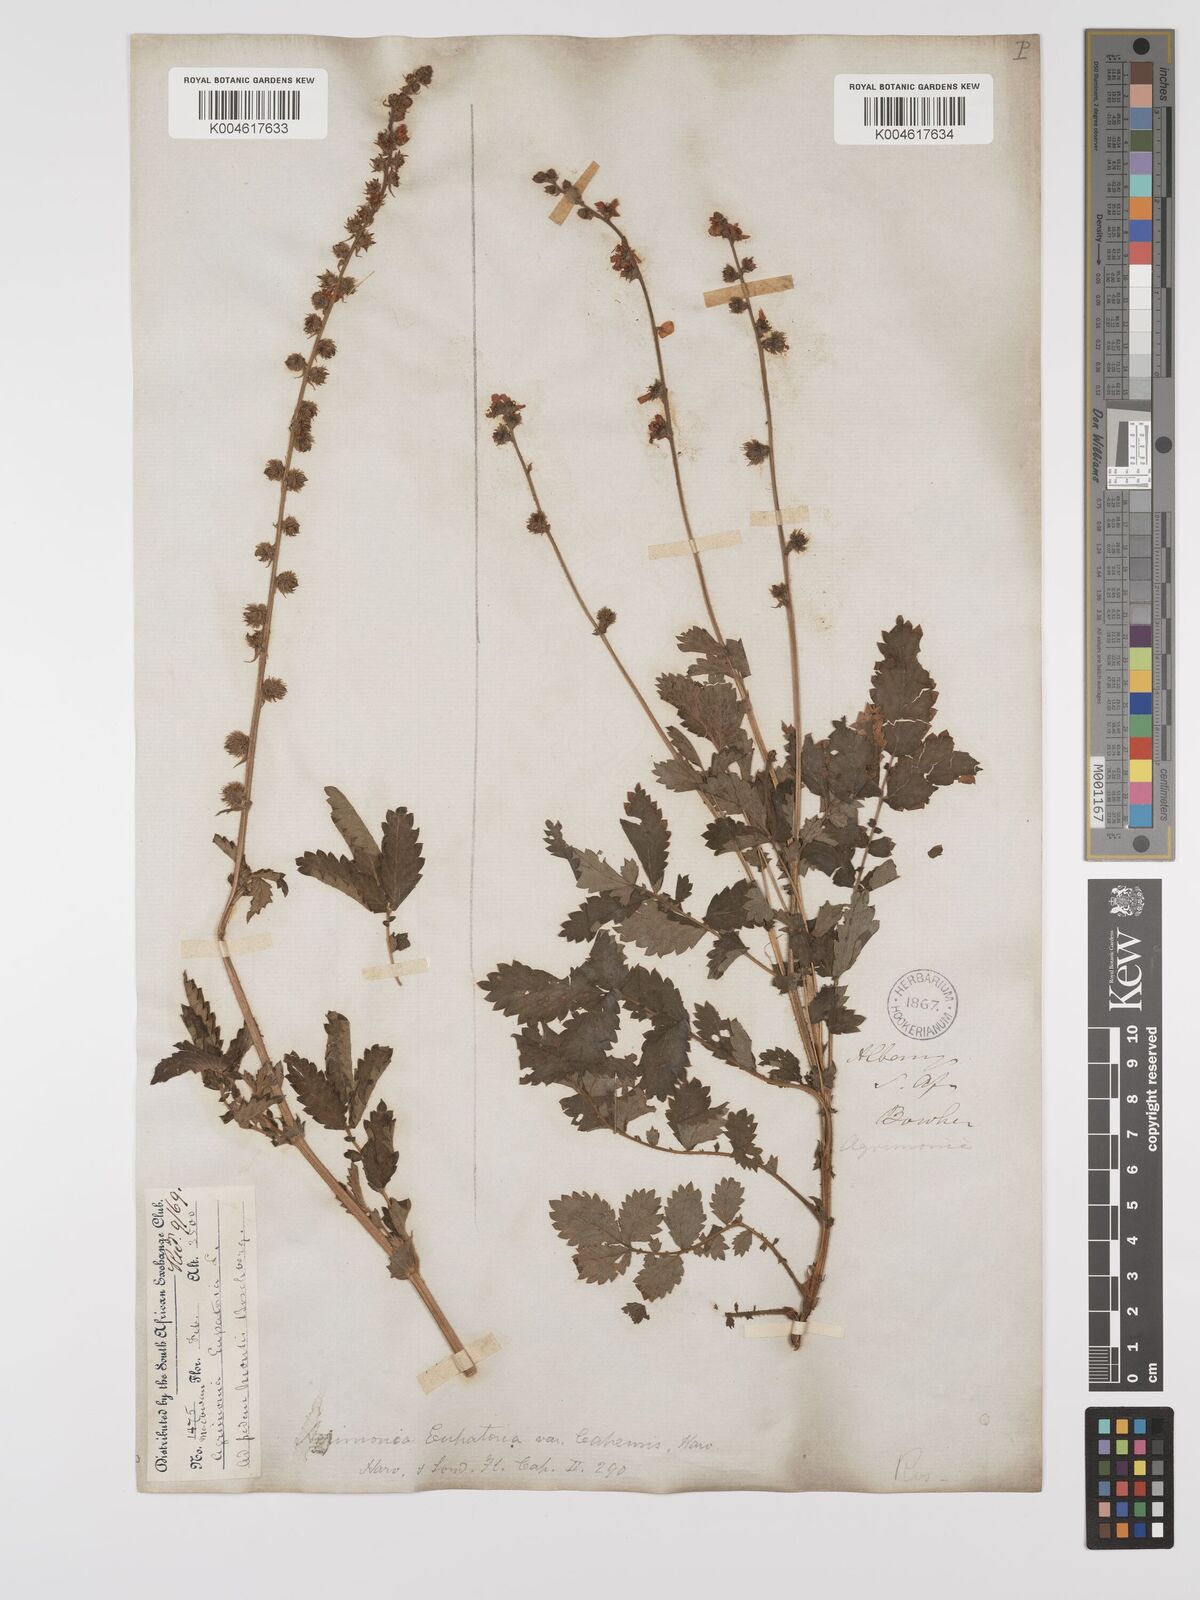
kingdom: Plantae
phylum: Tracheophyta
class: Magnoliopsida
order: Rosales
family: Rosaceae
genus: Agrimonia
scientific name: Agrimonia eupatoria
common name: Agrimony
